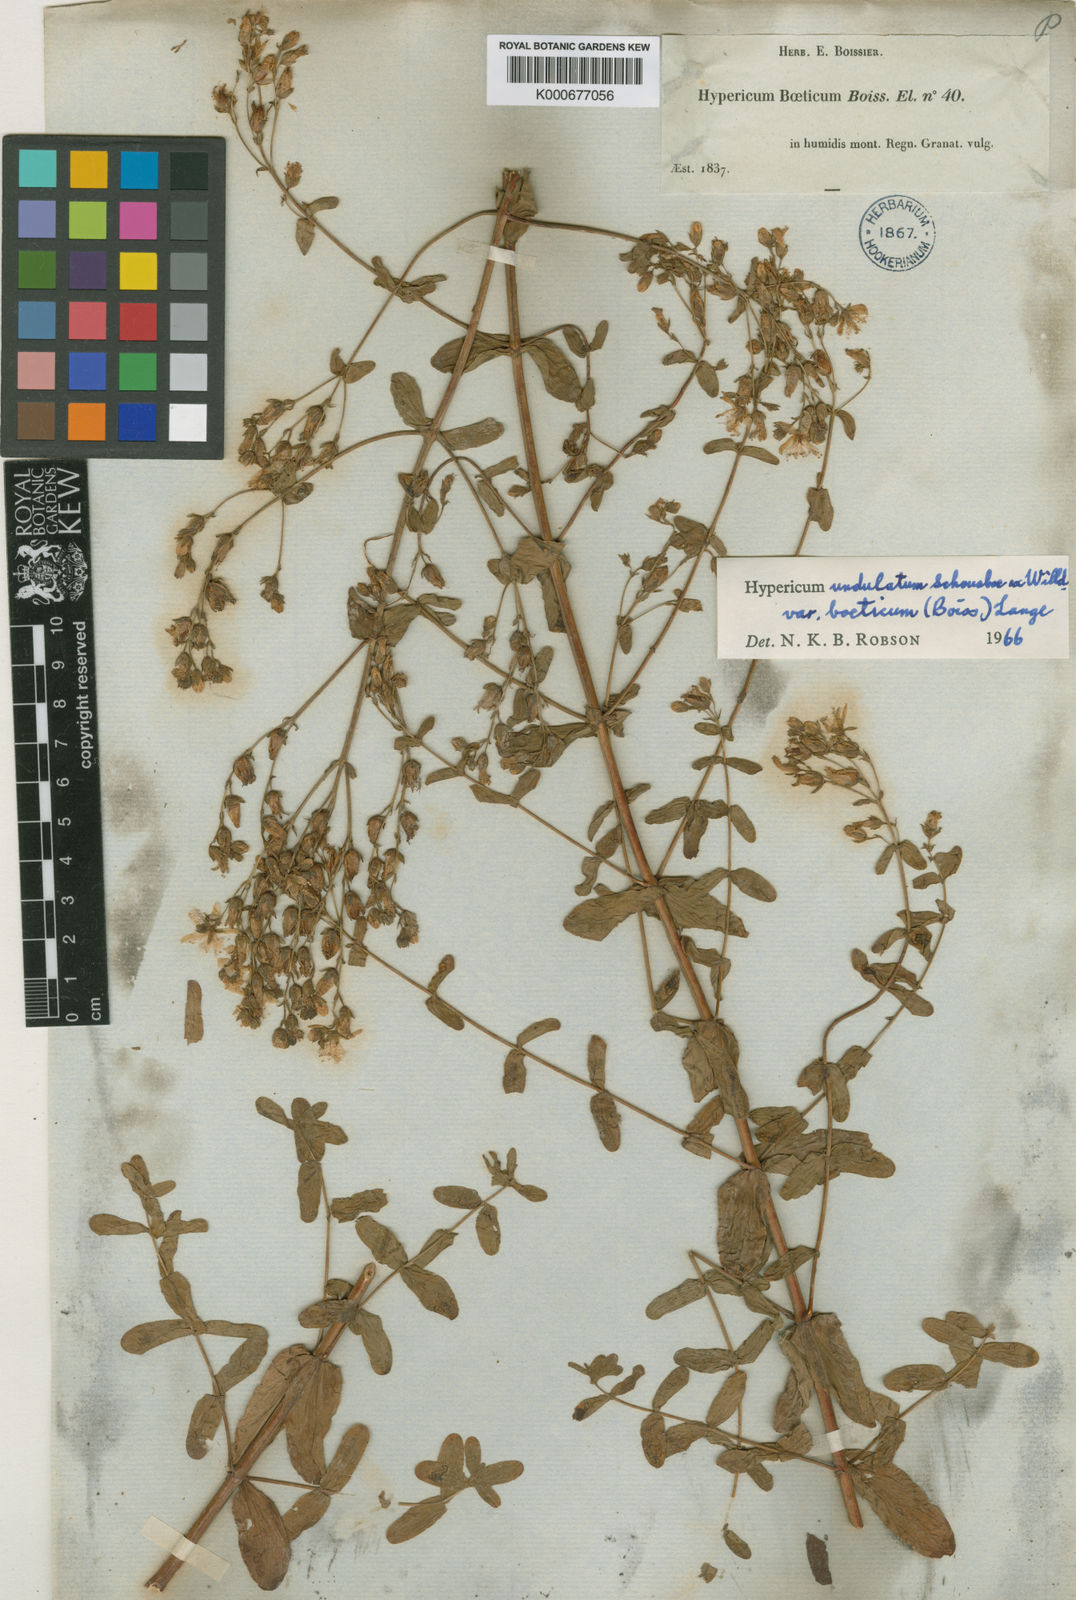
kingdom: Plantae
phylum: Tracheophyta
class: Magnoliopsida
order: Malpighiales
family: Hypericaceae
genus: Hypericum
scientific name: Hypericum undulatum
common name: Wavy st. john's-wort
